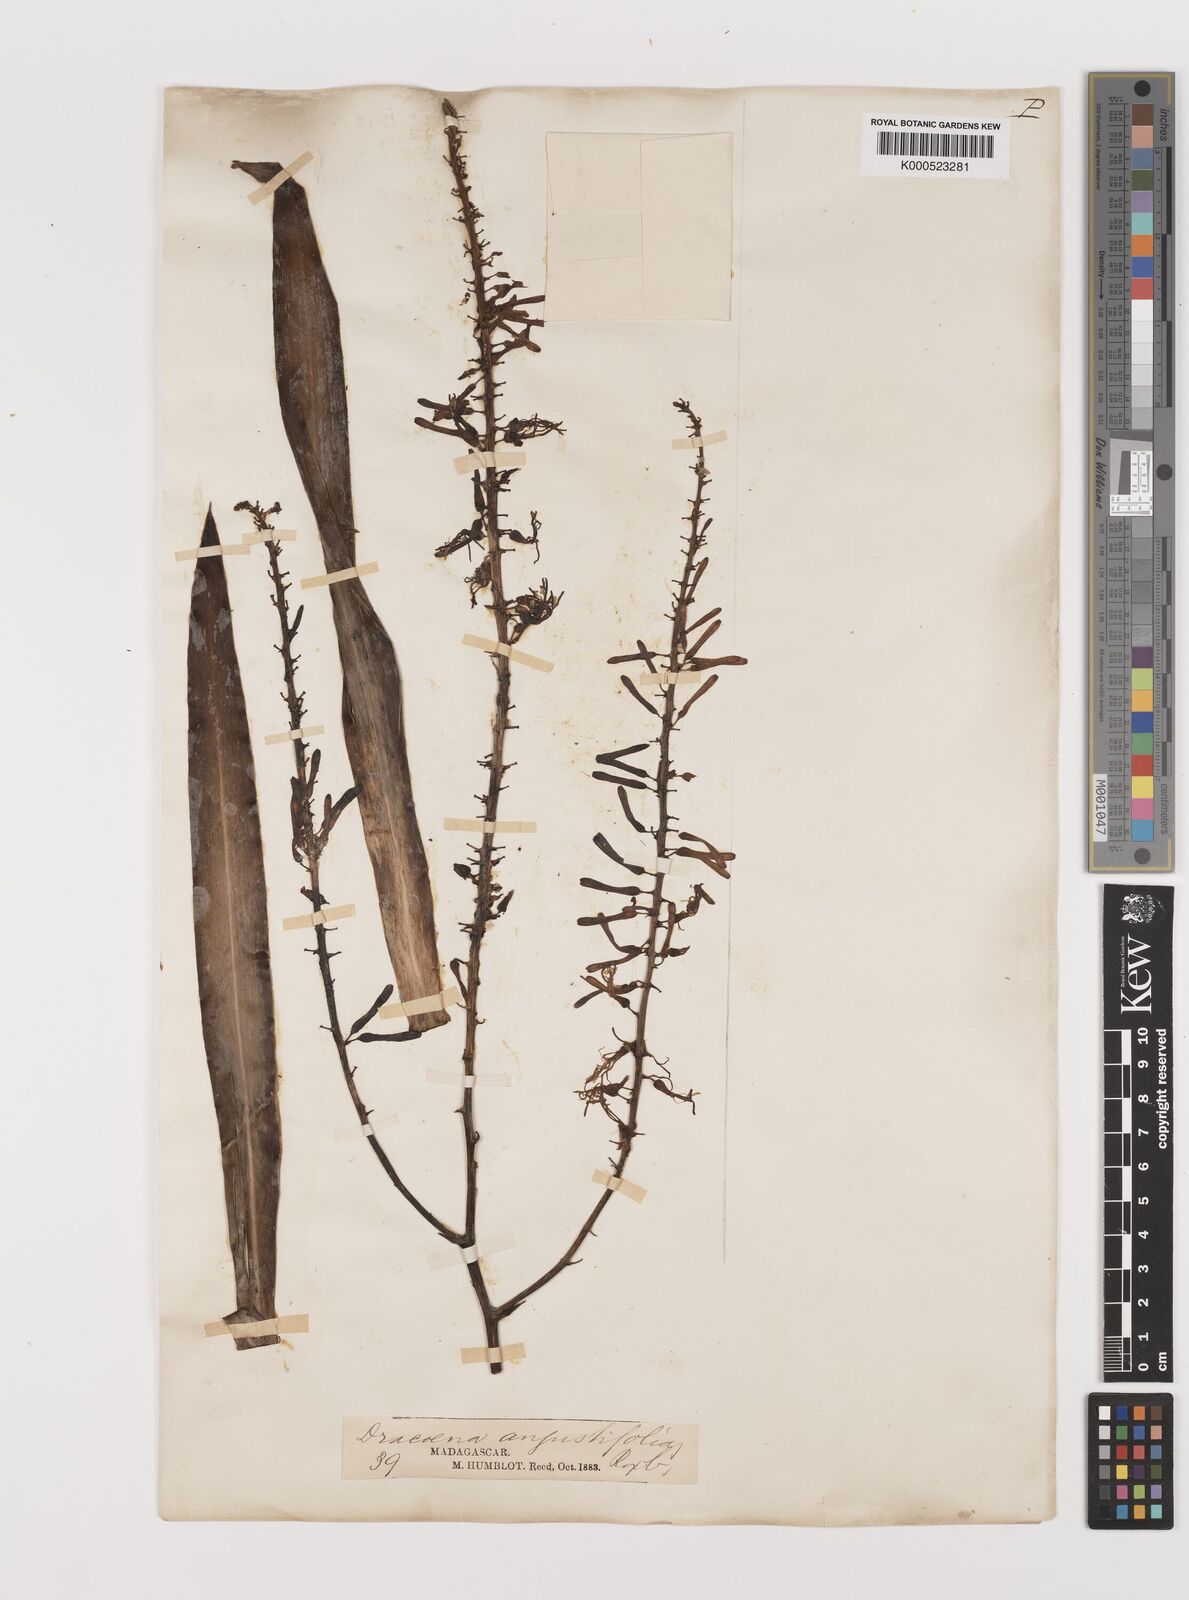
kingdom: Plantae
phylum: Tracheophyta
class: Liliopsida
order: Asparagales
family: Asparagaceae
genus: Dracaena
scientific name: Dracaena angustifolia
